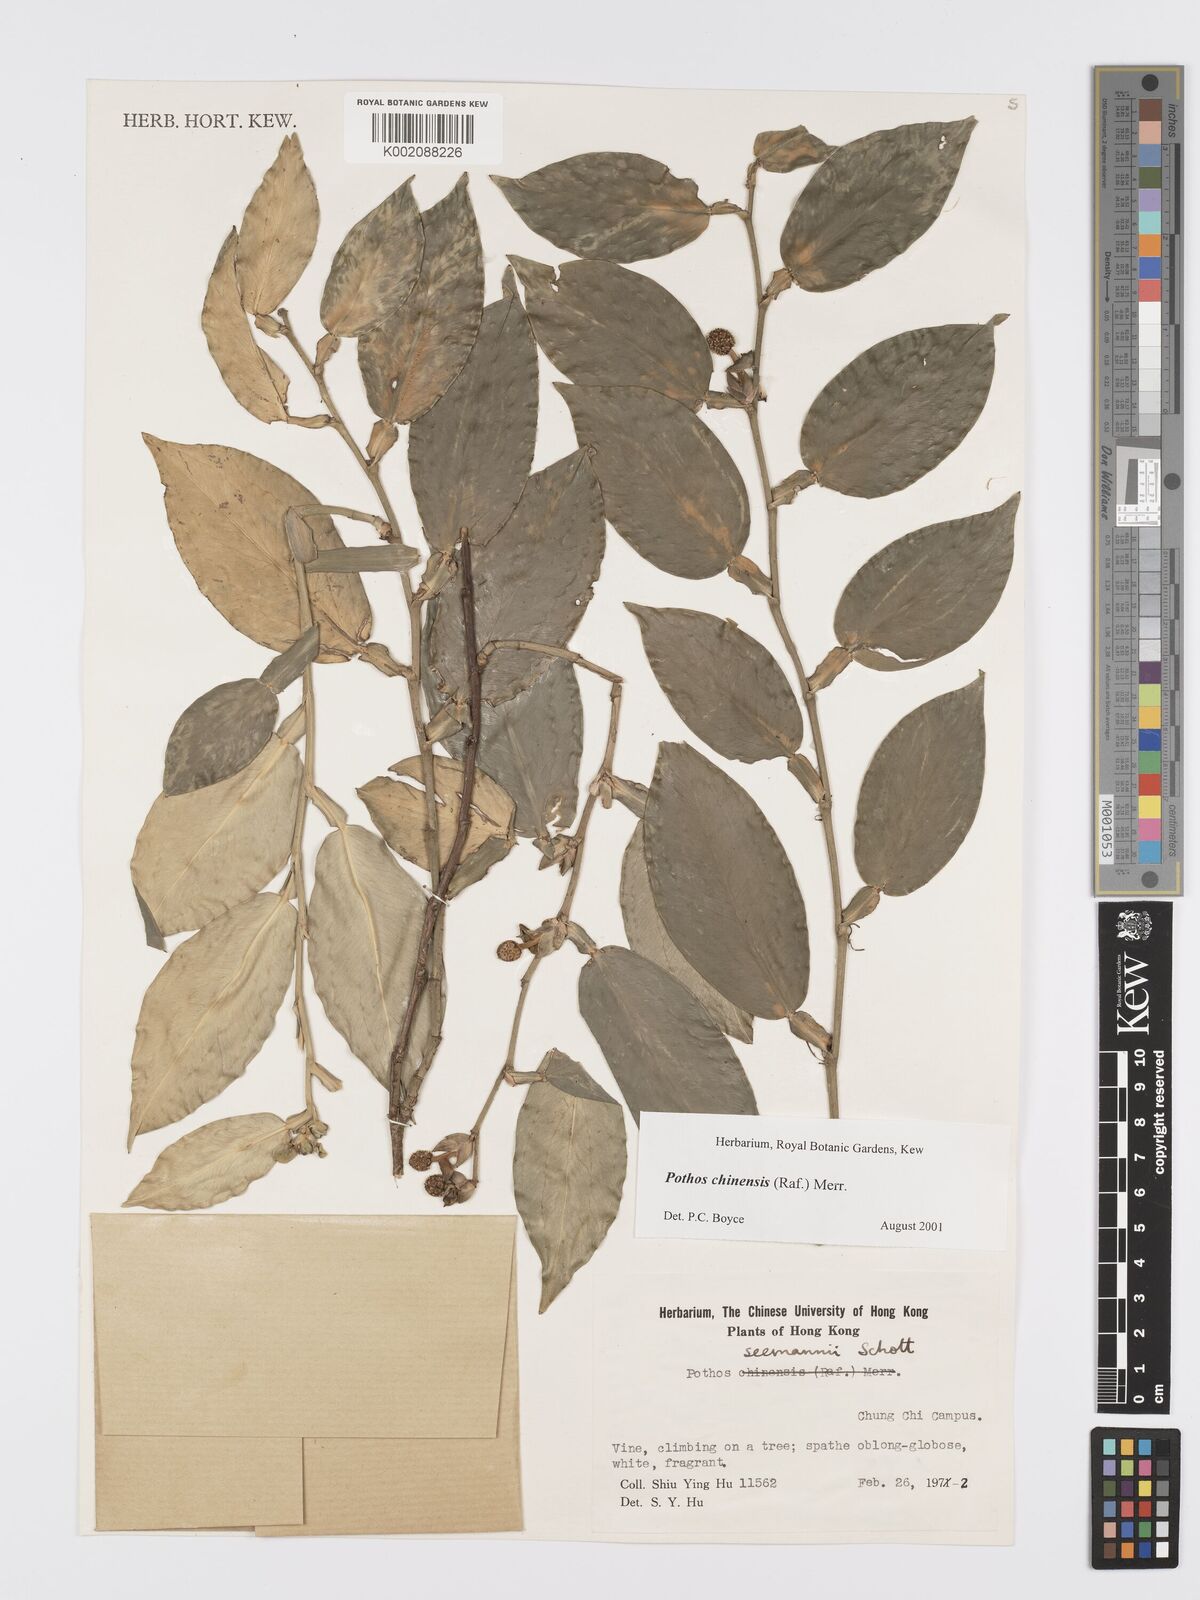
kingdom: Plantae
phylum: Tracheophyta
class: Liliopsida
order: Alismatales
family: Araceae
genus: Pothos
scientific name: Pothos chinensis
